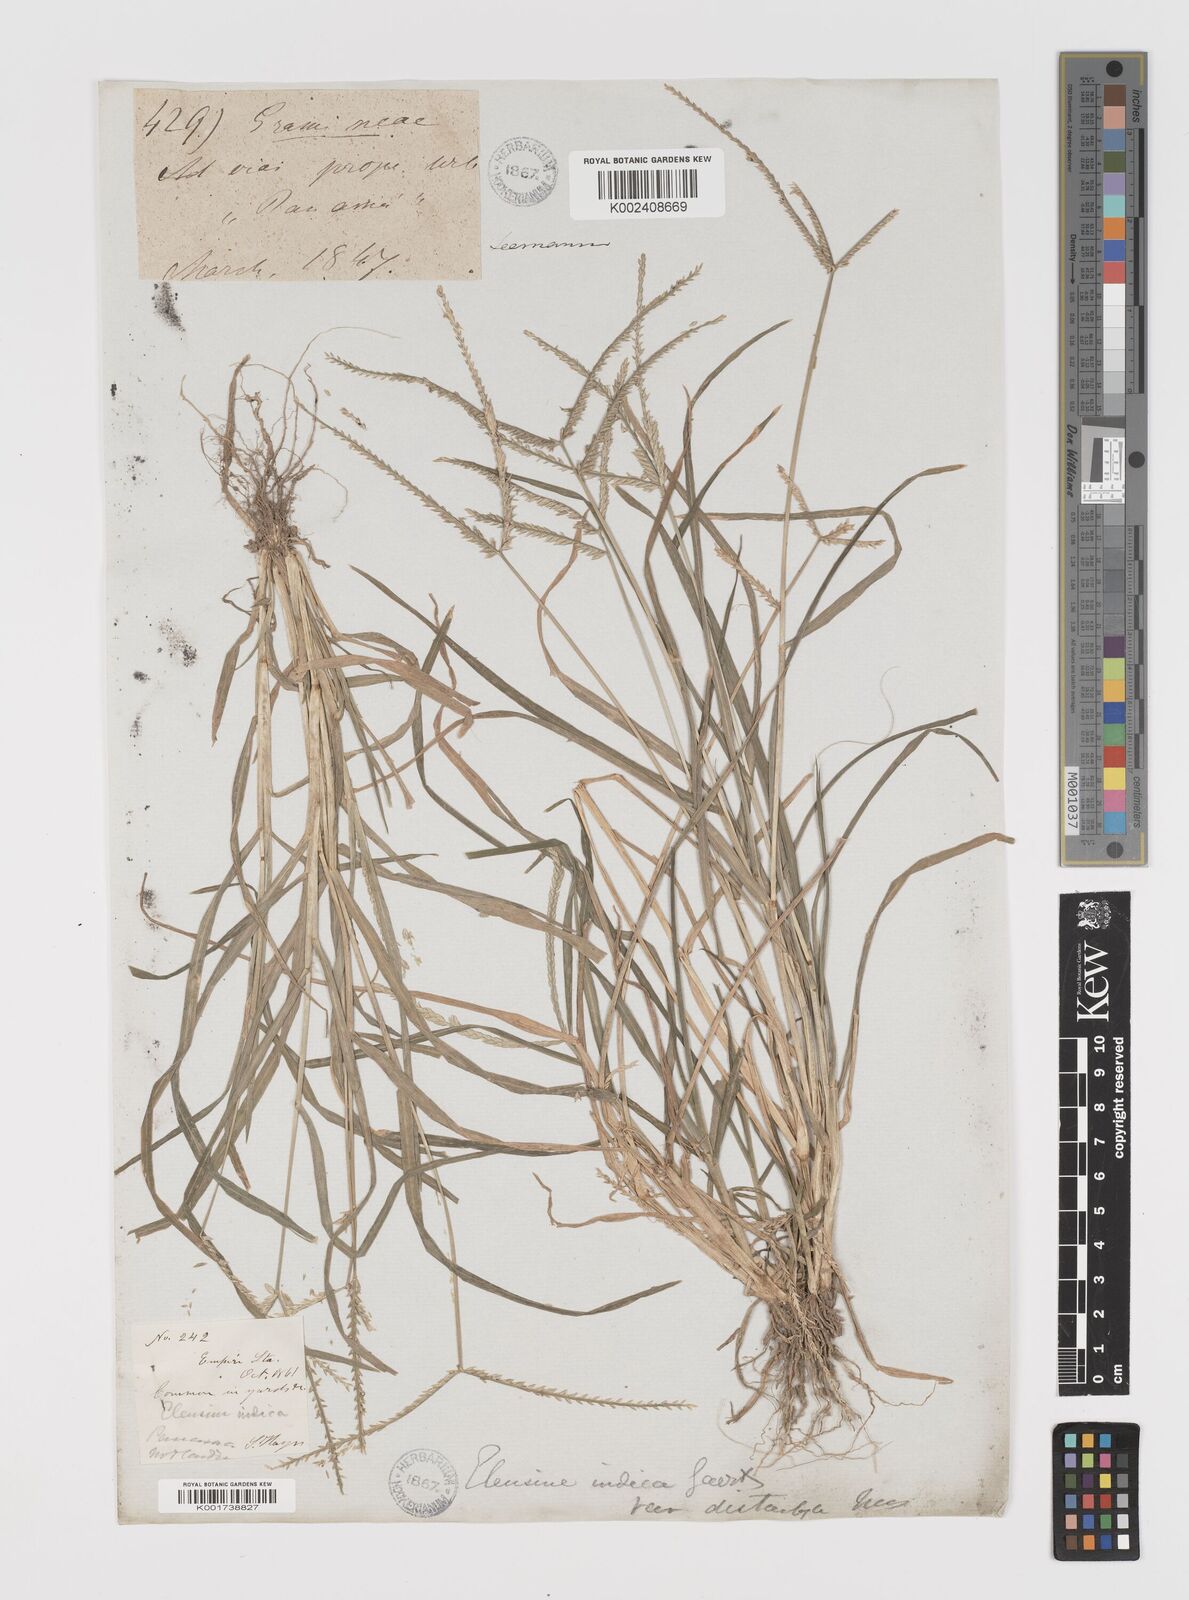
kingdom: Plantae
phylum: Tracheophyta
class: Liliopsida
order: Poales
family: Poaceae
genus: Eleusine
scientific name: Eleusine indica
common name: Yard-grass
